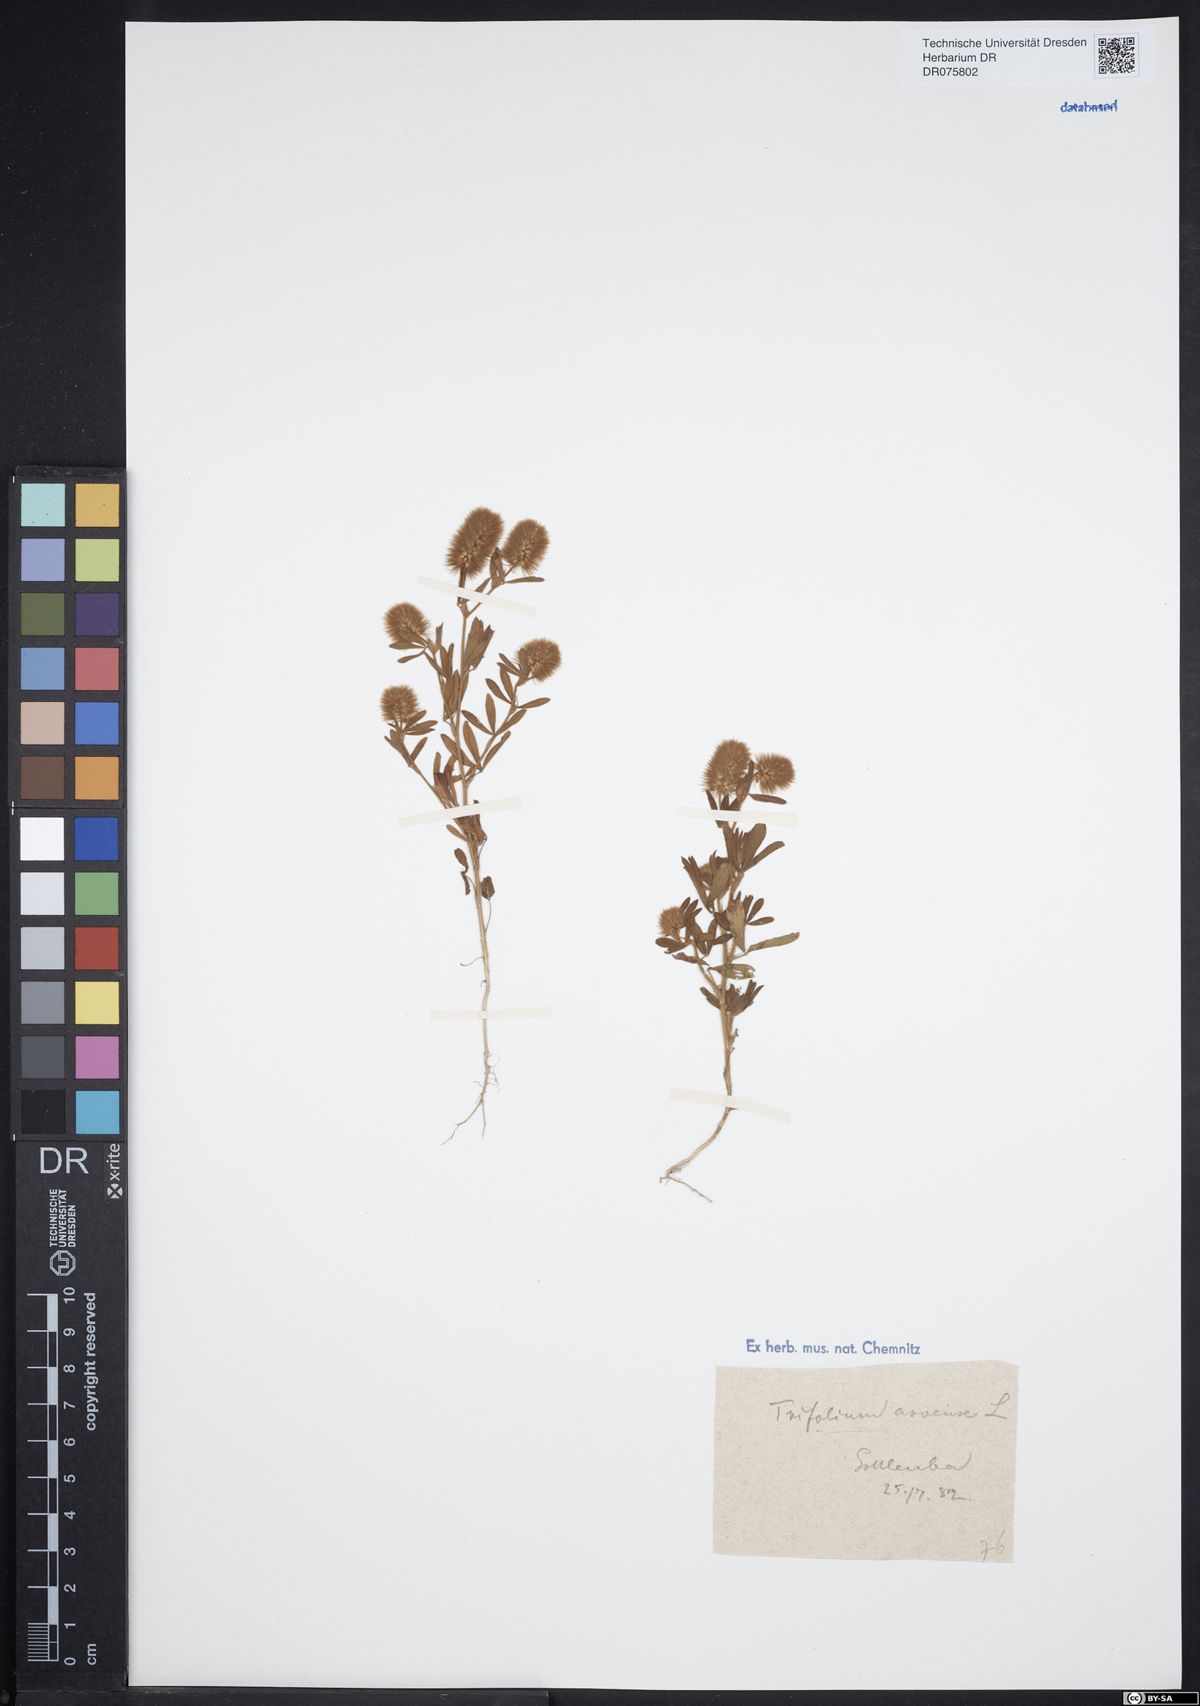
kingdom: Plantae
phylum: Tracheophyta
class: Magnoliopsida
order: Fabales
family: Fabaceae
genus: Trifolium
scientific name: Trifolium arvense
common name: Hare's-foot clover
